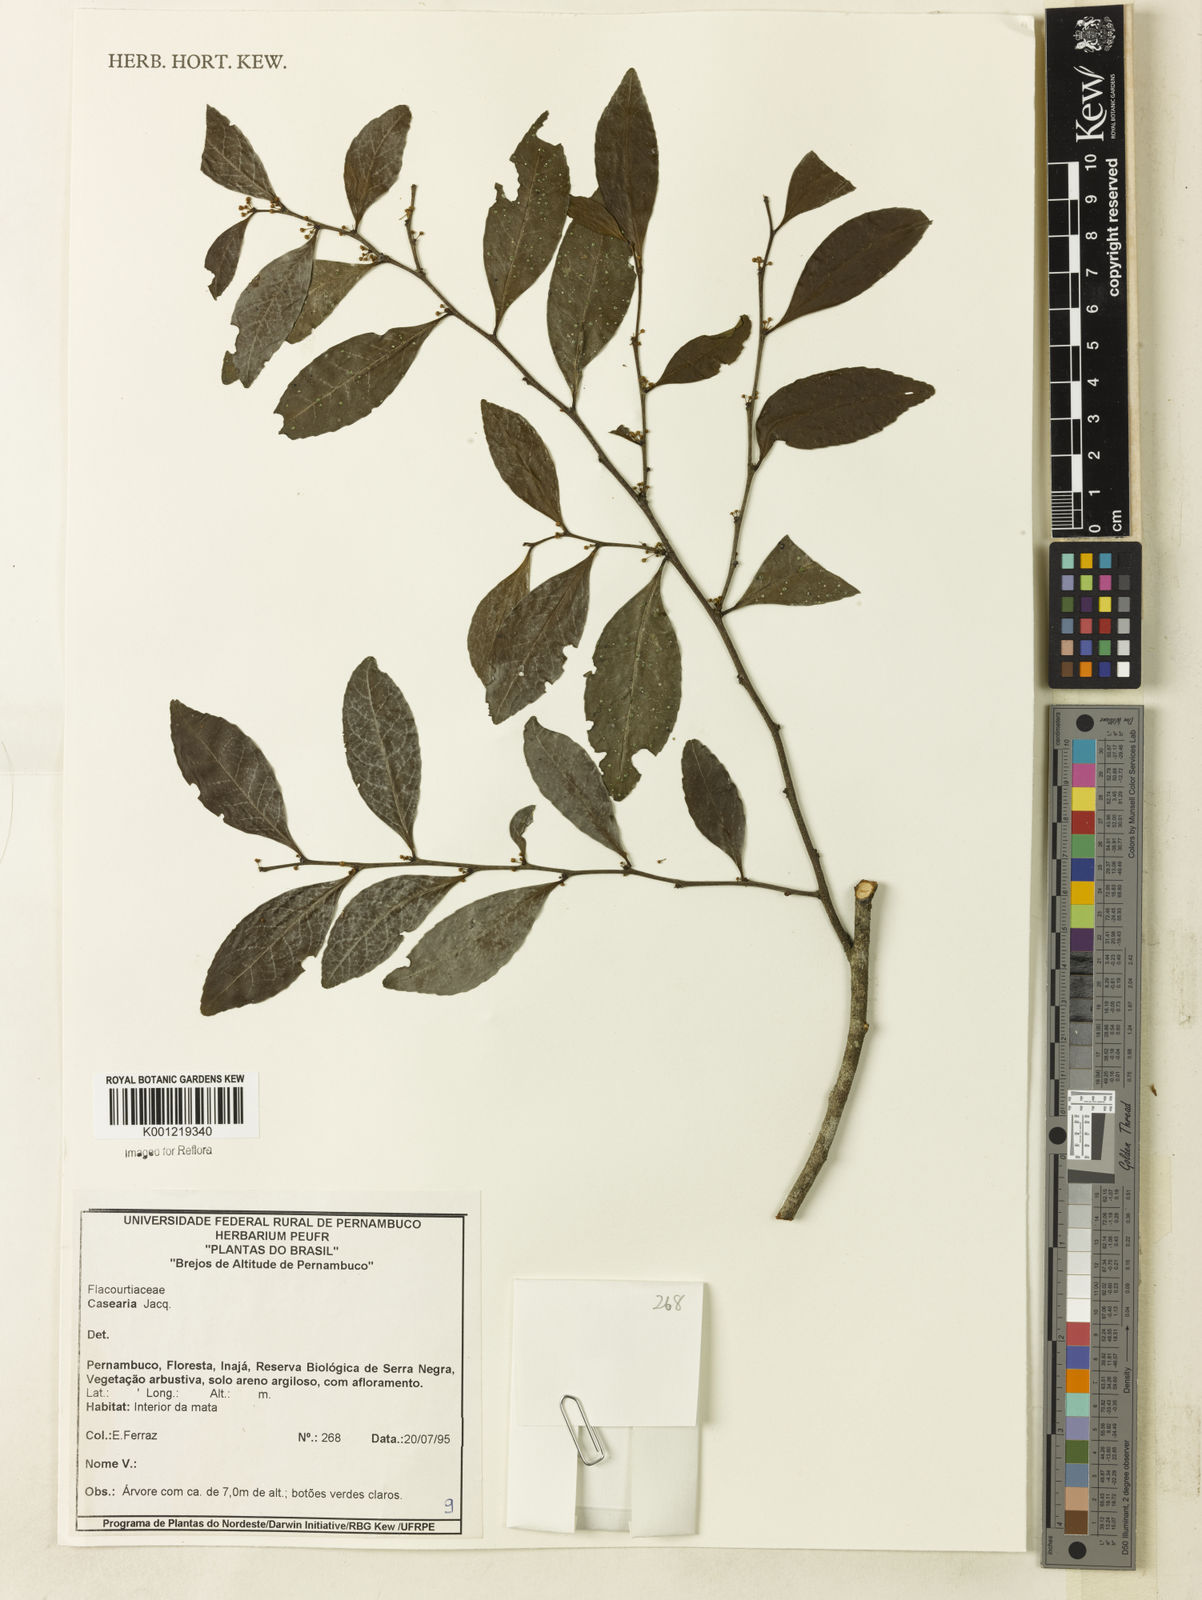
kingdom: Plantae
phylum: Tracheophyta
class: Magnoliopsida
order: Malpighiales
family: Salicaceae
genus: Casearia
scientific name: Casearia
